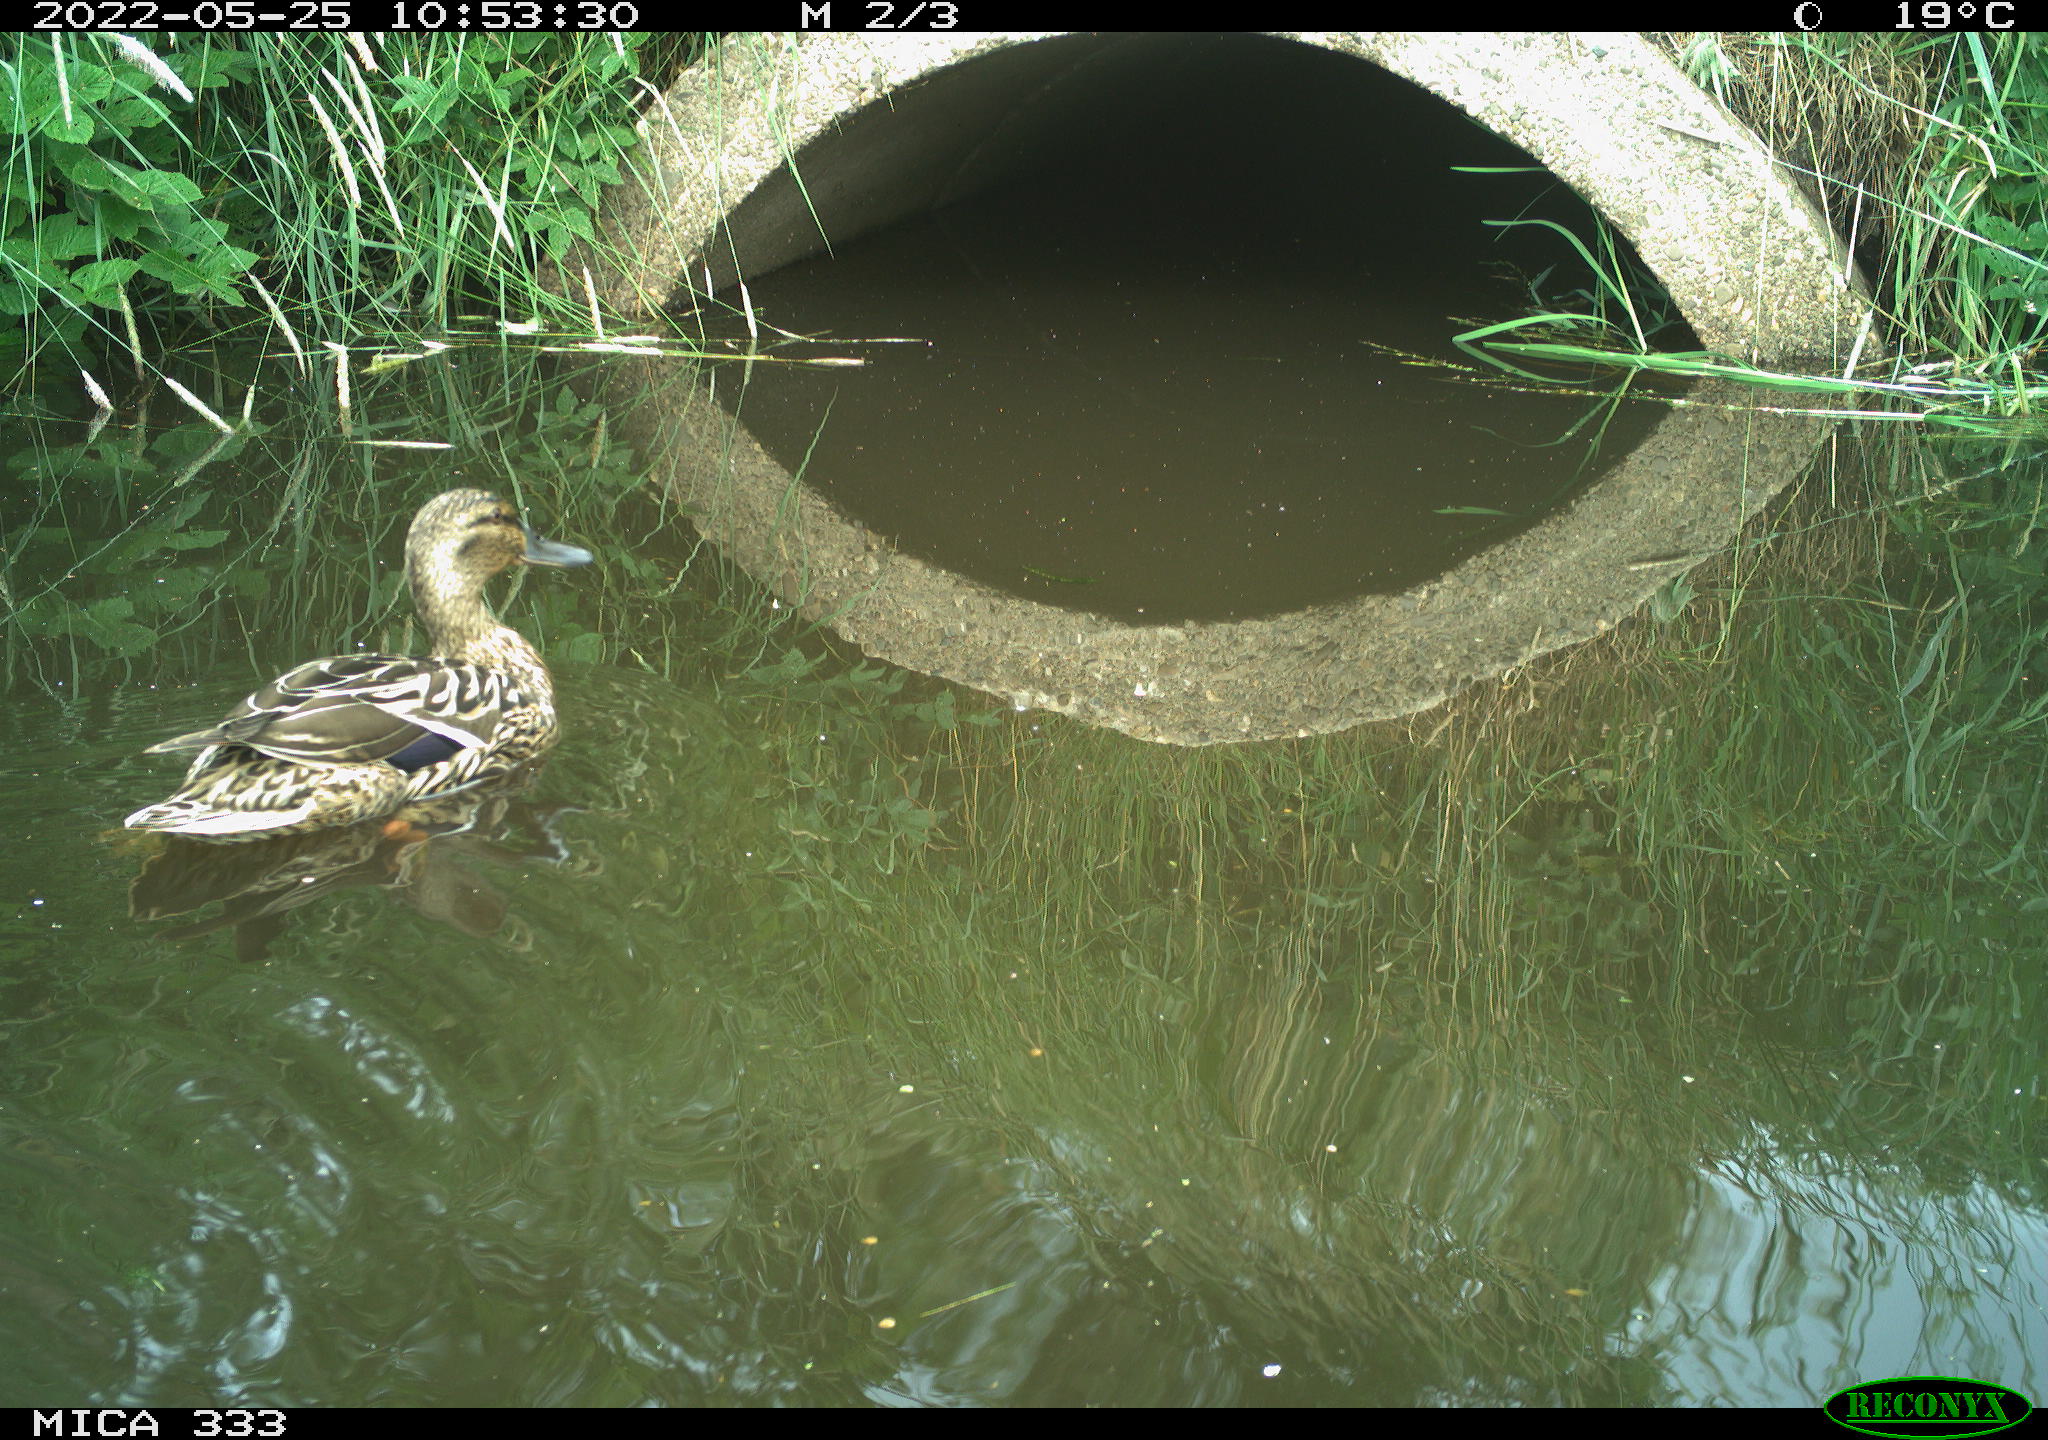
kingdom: Animalia
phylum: Chordata
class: Aves
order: Anseriformes
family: Anatidae
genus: Anas
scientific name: Anas platyrhynchos
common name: Mallard
